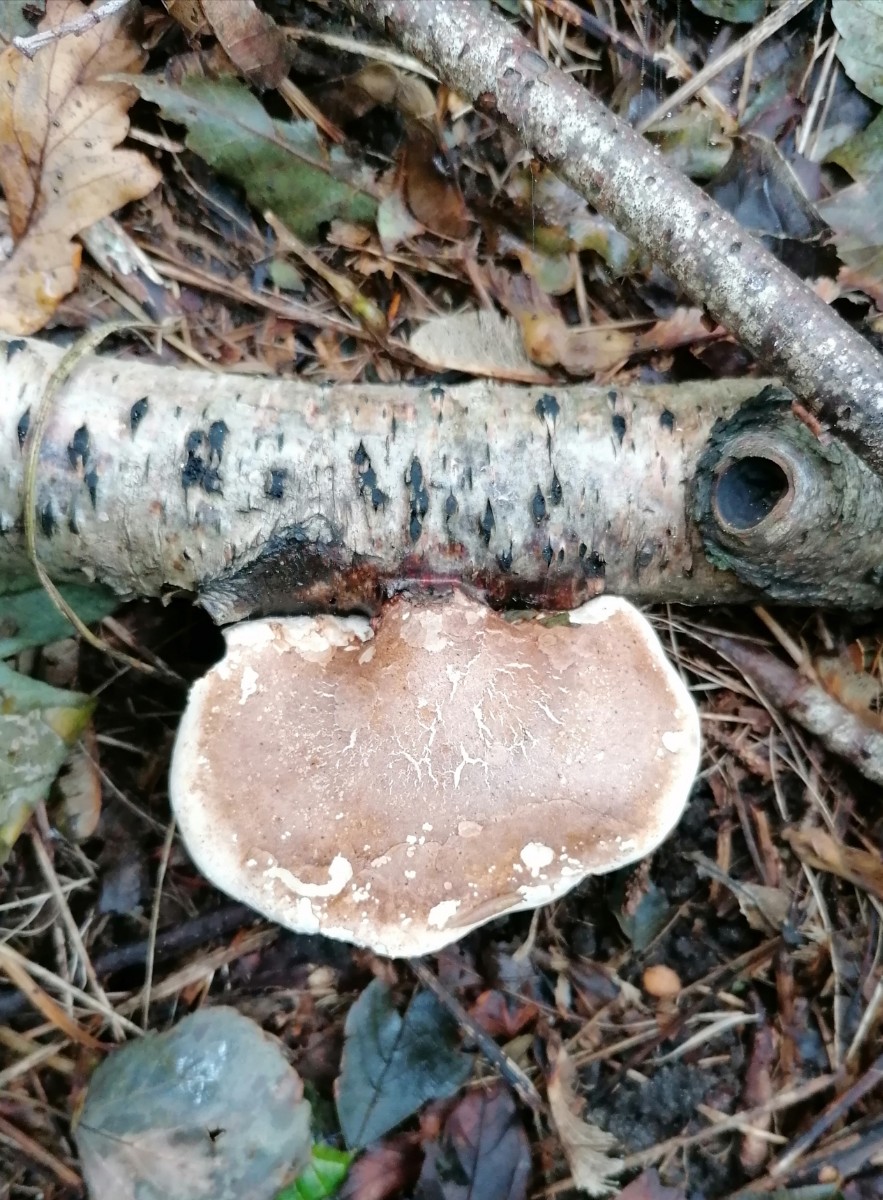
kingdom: Fungi
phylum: Basidiomycota
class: Agaricomycetes
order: Polyporales
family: Fomitopsidaceae
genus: Fomitopsis
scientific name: Fomitopsis betulina
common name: birkeporesvamp
